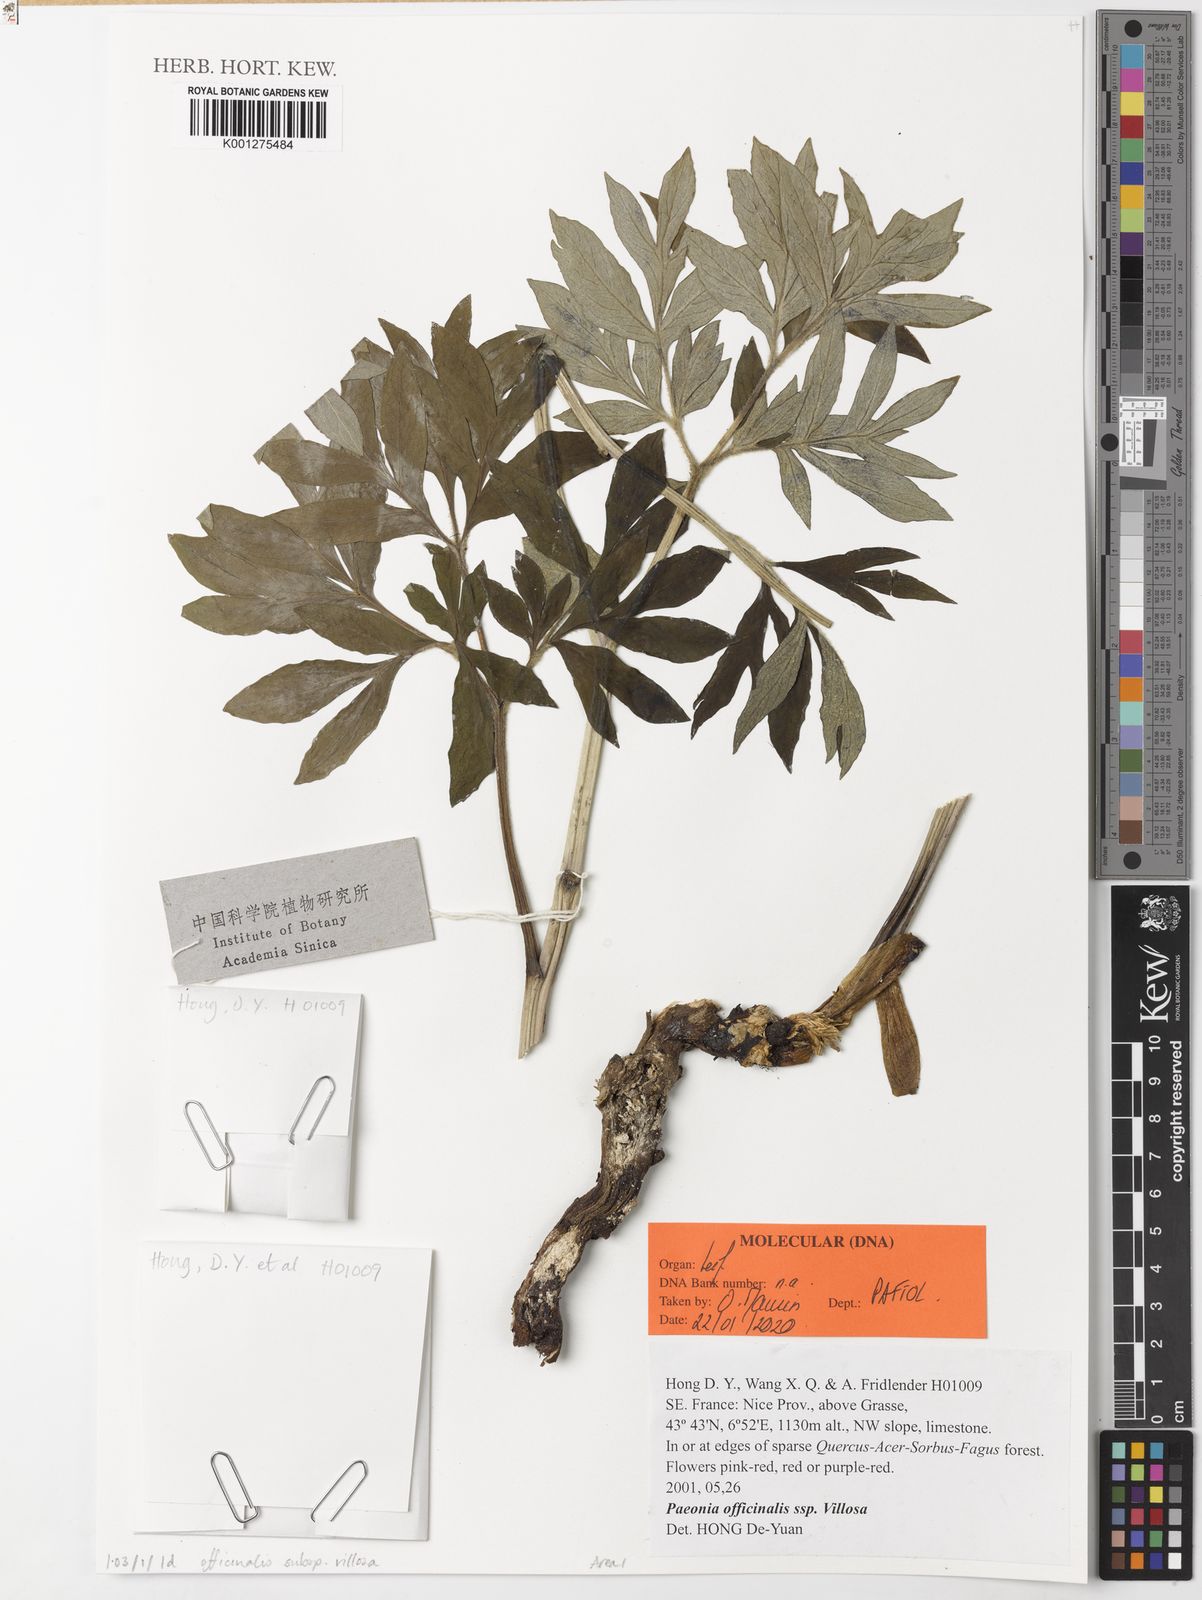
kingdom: Plantae
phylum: Tracheophyta
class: Magnoliopsida
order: Saxifragales
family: Paeoniaceae
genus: Paeonia
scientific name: Paeonia officinalis
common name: Common peony
